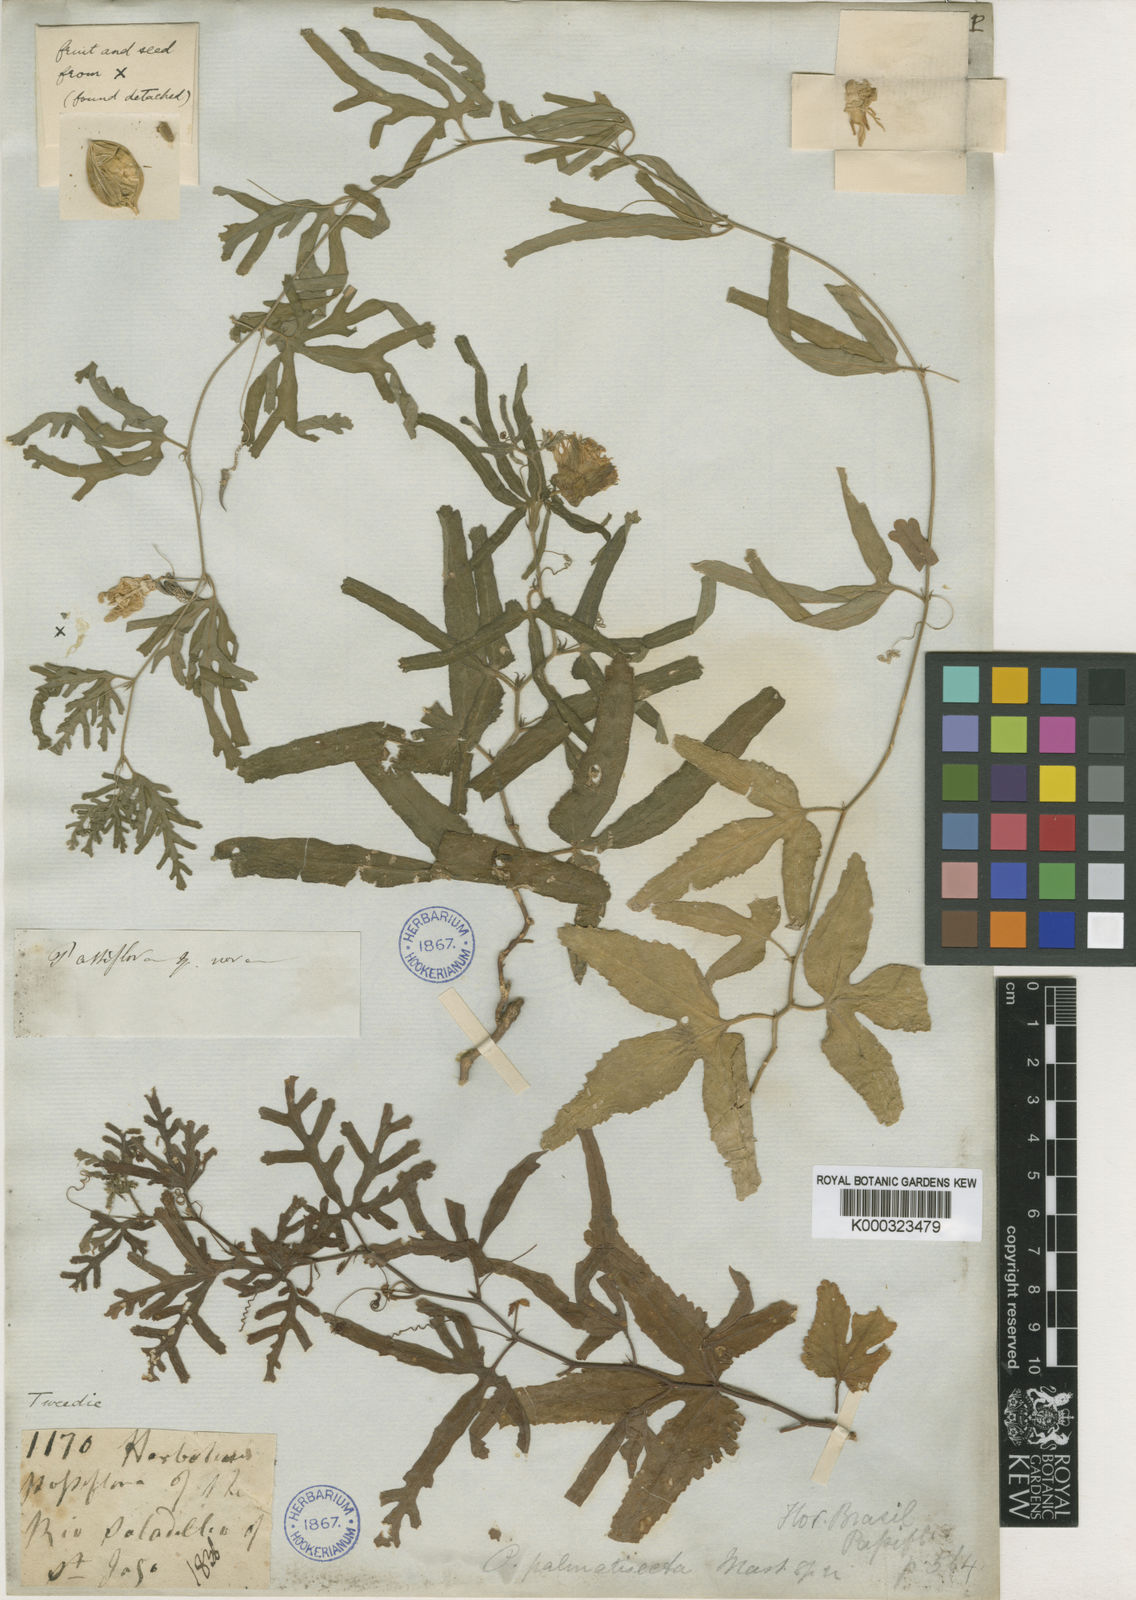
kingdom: Plantae
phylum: Tracheophyta
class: Magnoliopsida
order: Malpighiales
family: Passifloraceae
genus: Passiflora
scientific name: Passiflora palmatisecta
